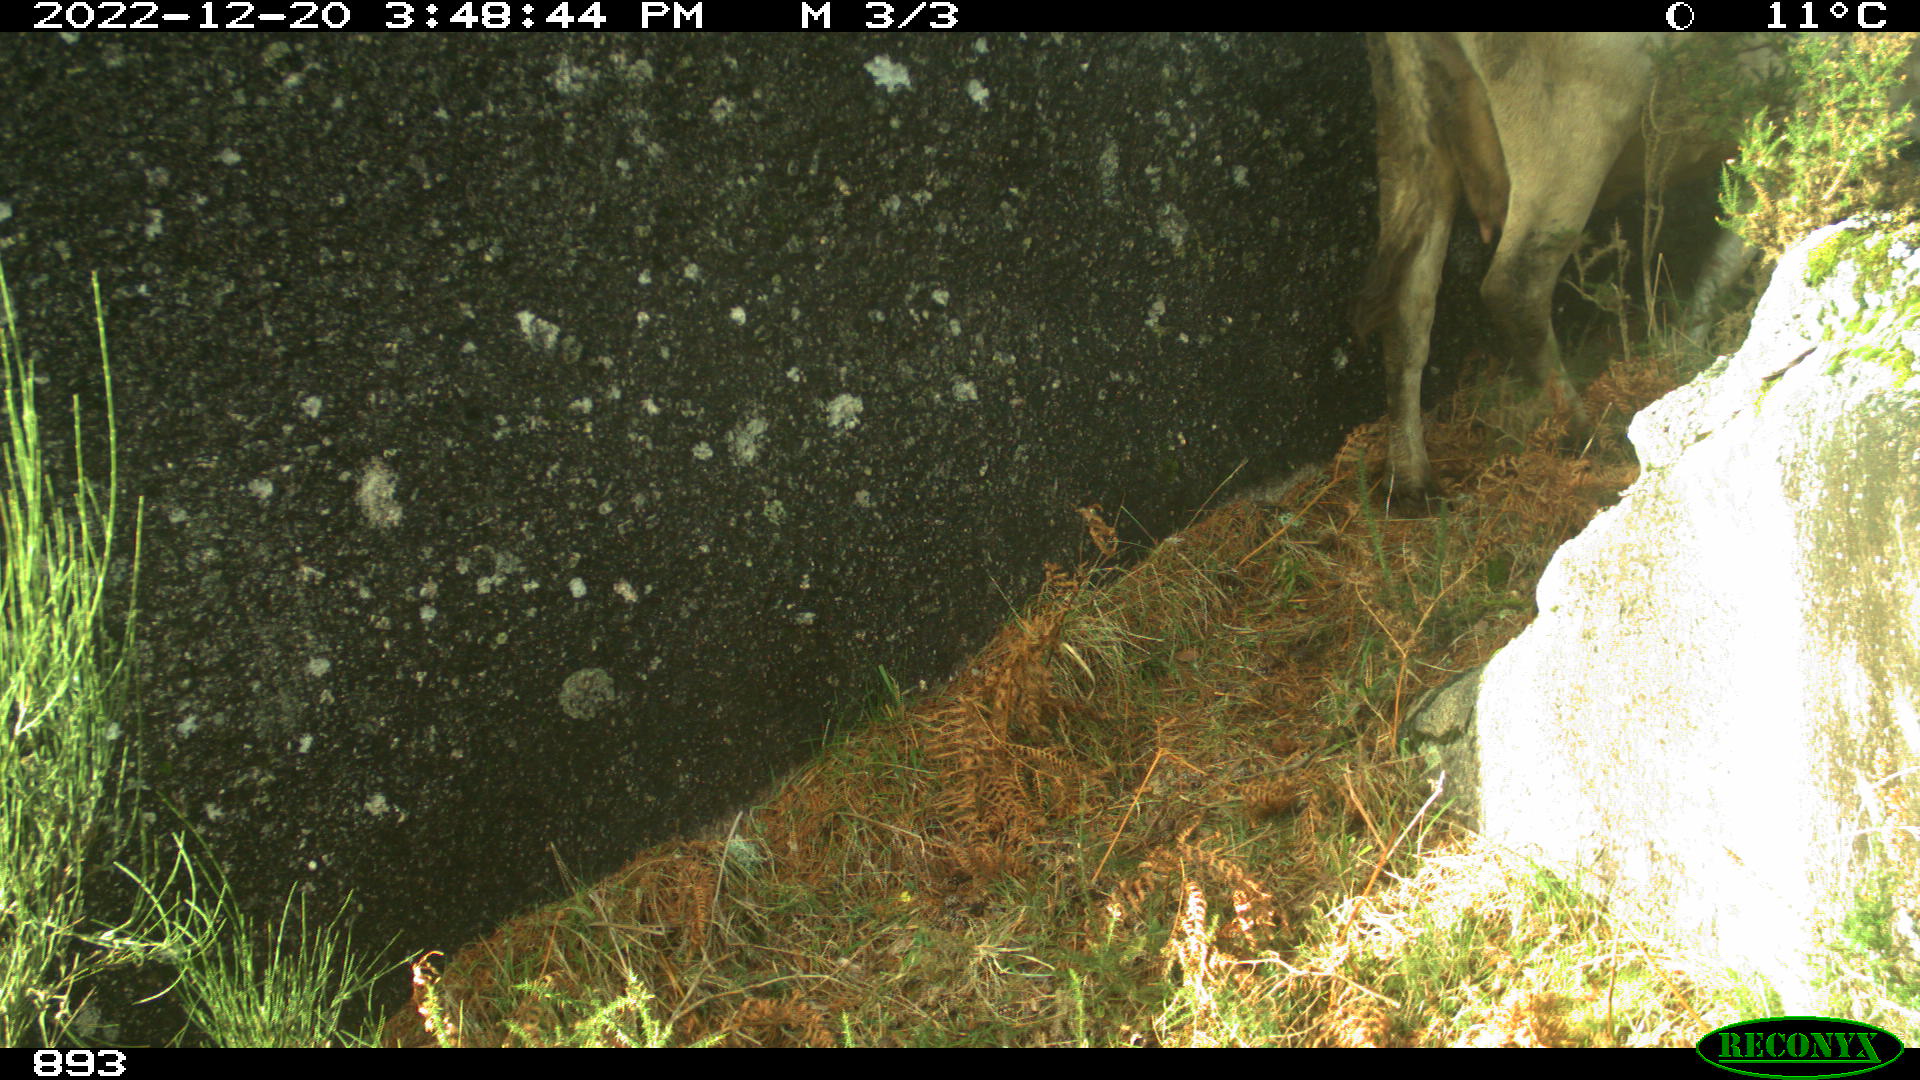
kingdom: Animalia
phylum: Chordata
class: Mammalia
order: Artiodactyla
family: Bovidae
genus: Bos
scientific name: Bos taurus
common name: Domesticated cattle
